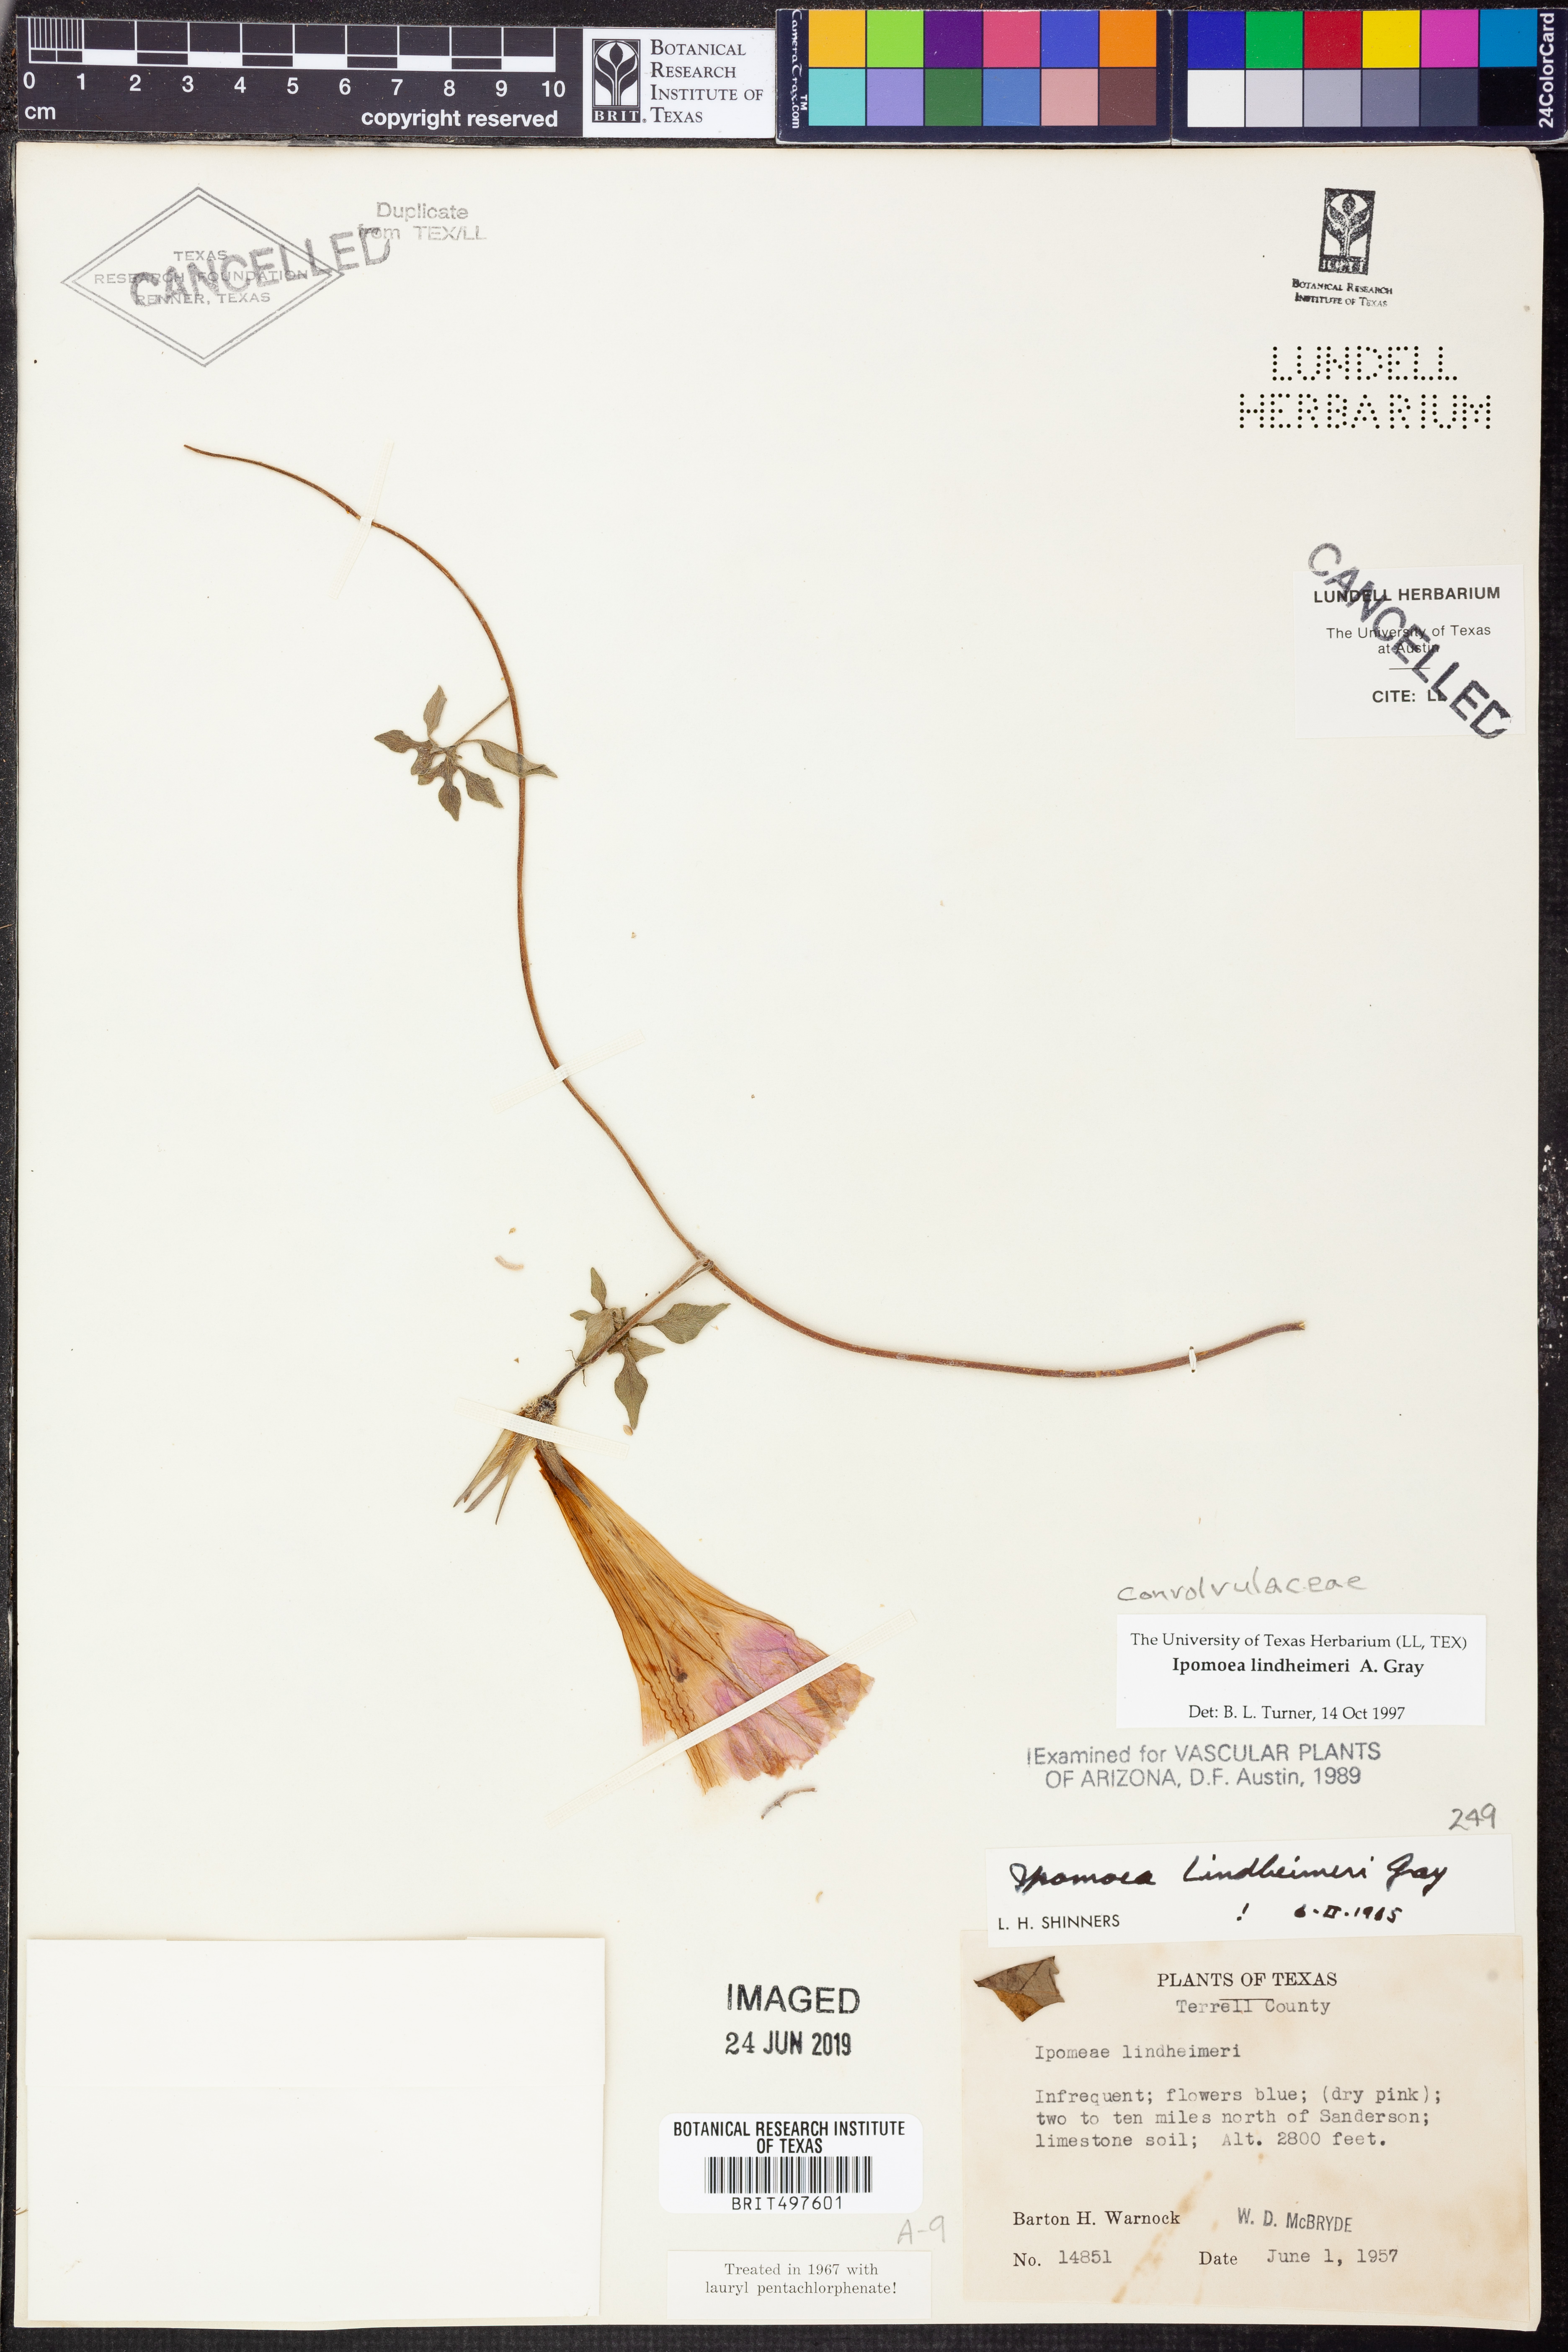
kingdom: Plantae
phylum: Tracheophyta
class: Magnoliopsida
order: Solanales
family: Convolvulaceae
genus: Ipomoea
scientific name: Ipomoea lindheimeri
